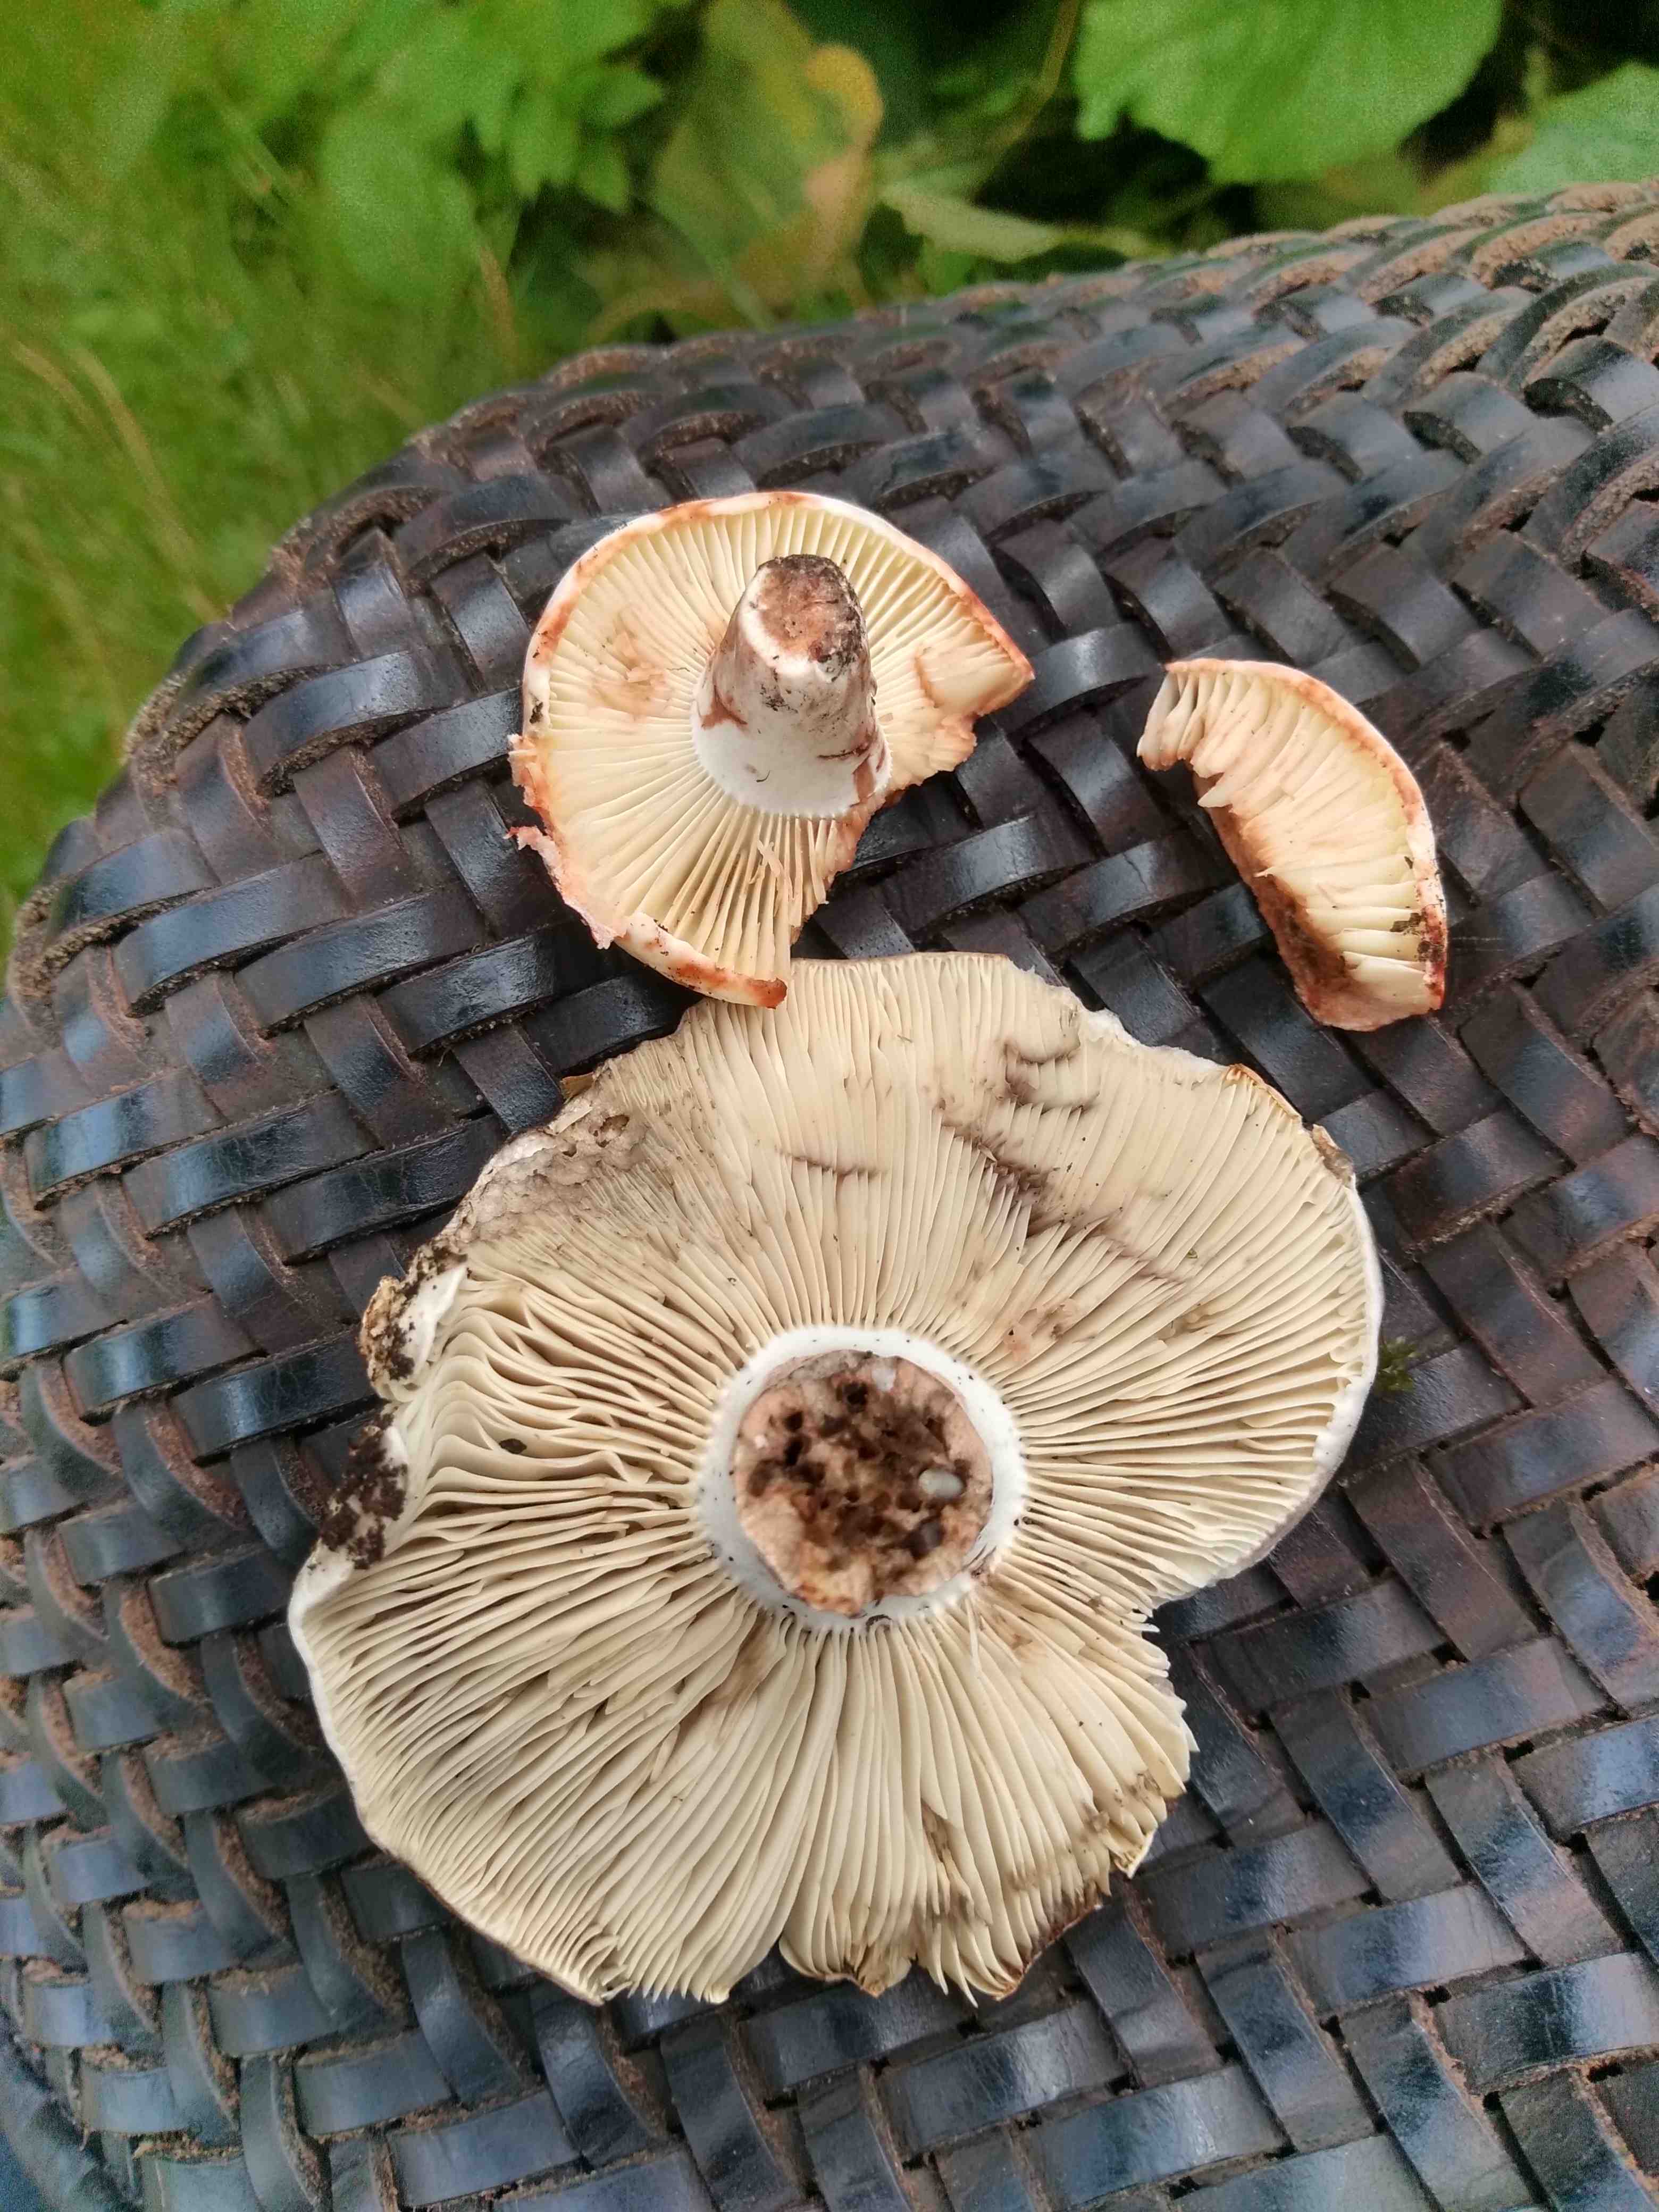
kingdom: Fungi
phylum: Basidiomycota
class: Agaricomycetes
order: Russulales
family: Russulaceae
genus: Russula
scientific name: Russula densifolia
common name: tætbladet skørhat
